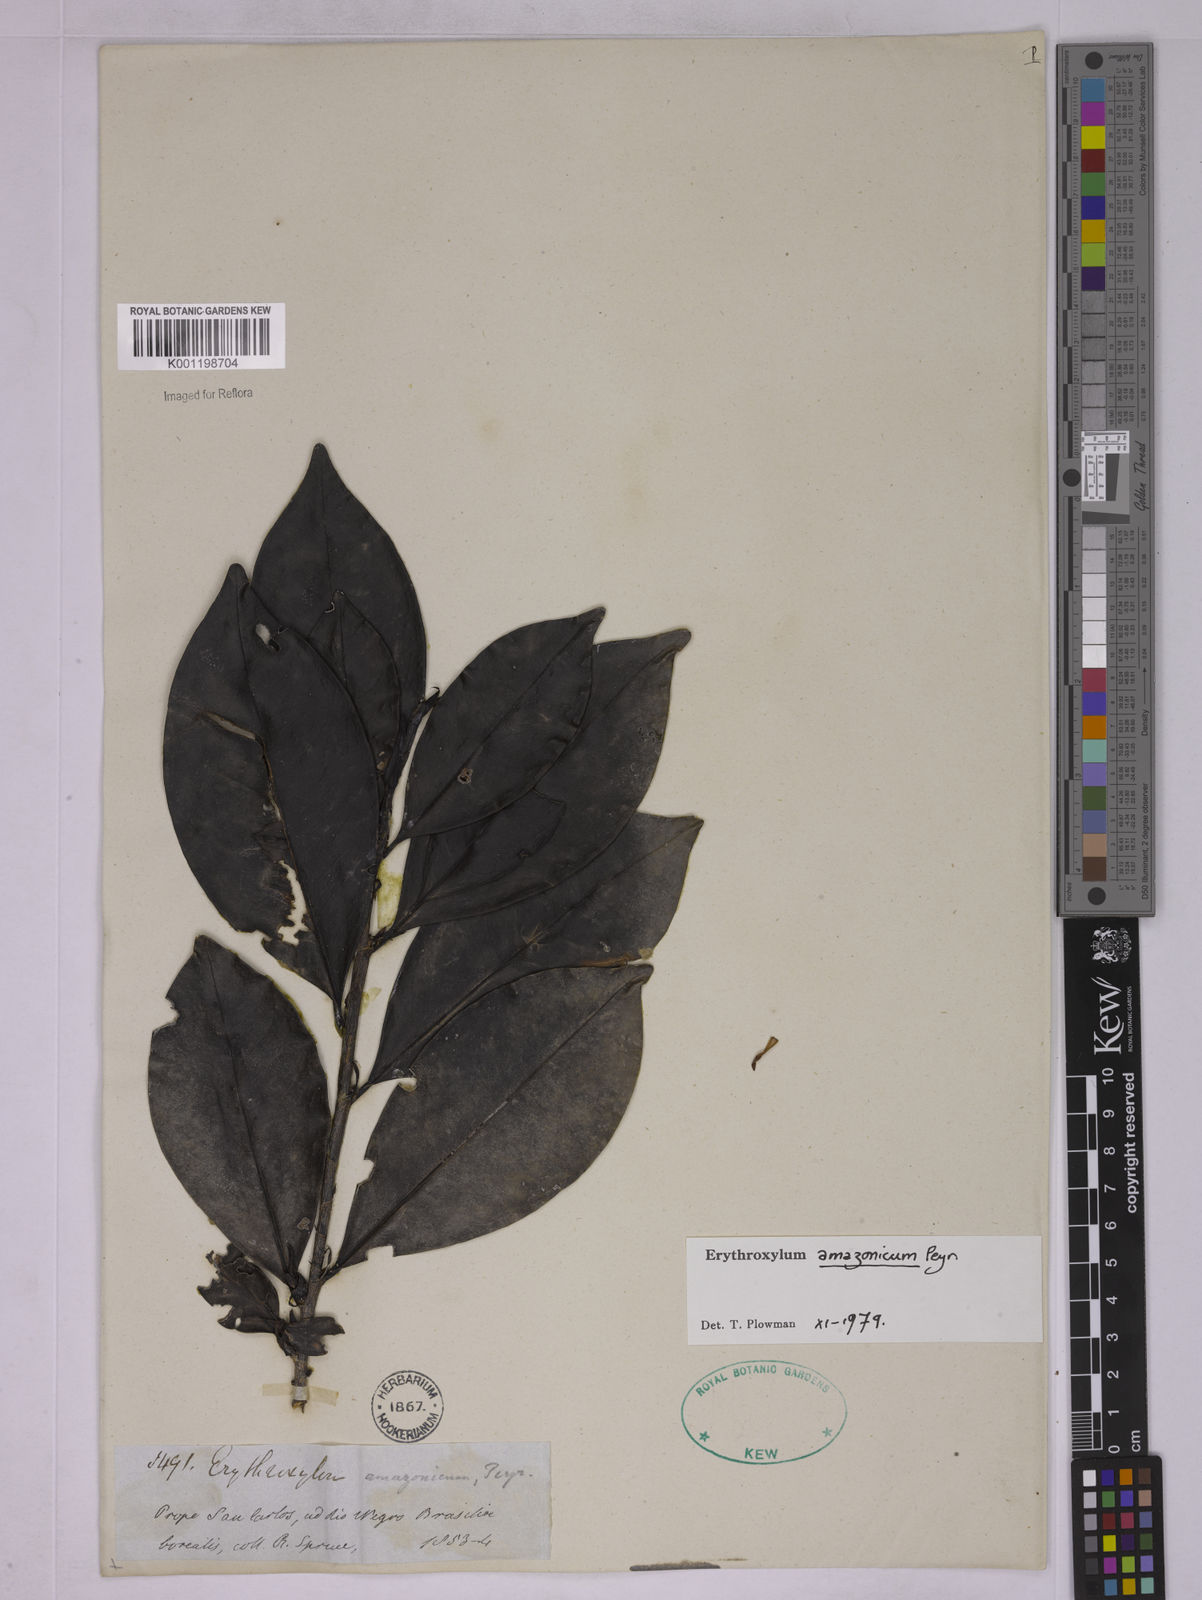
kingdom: Plantae
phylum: Tracheophyta
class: Magnoliopsida
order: Malpighiales
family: Erythroxylaceae
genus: Erythroxylum
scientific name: Erythroxylum amazonicum
